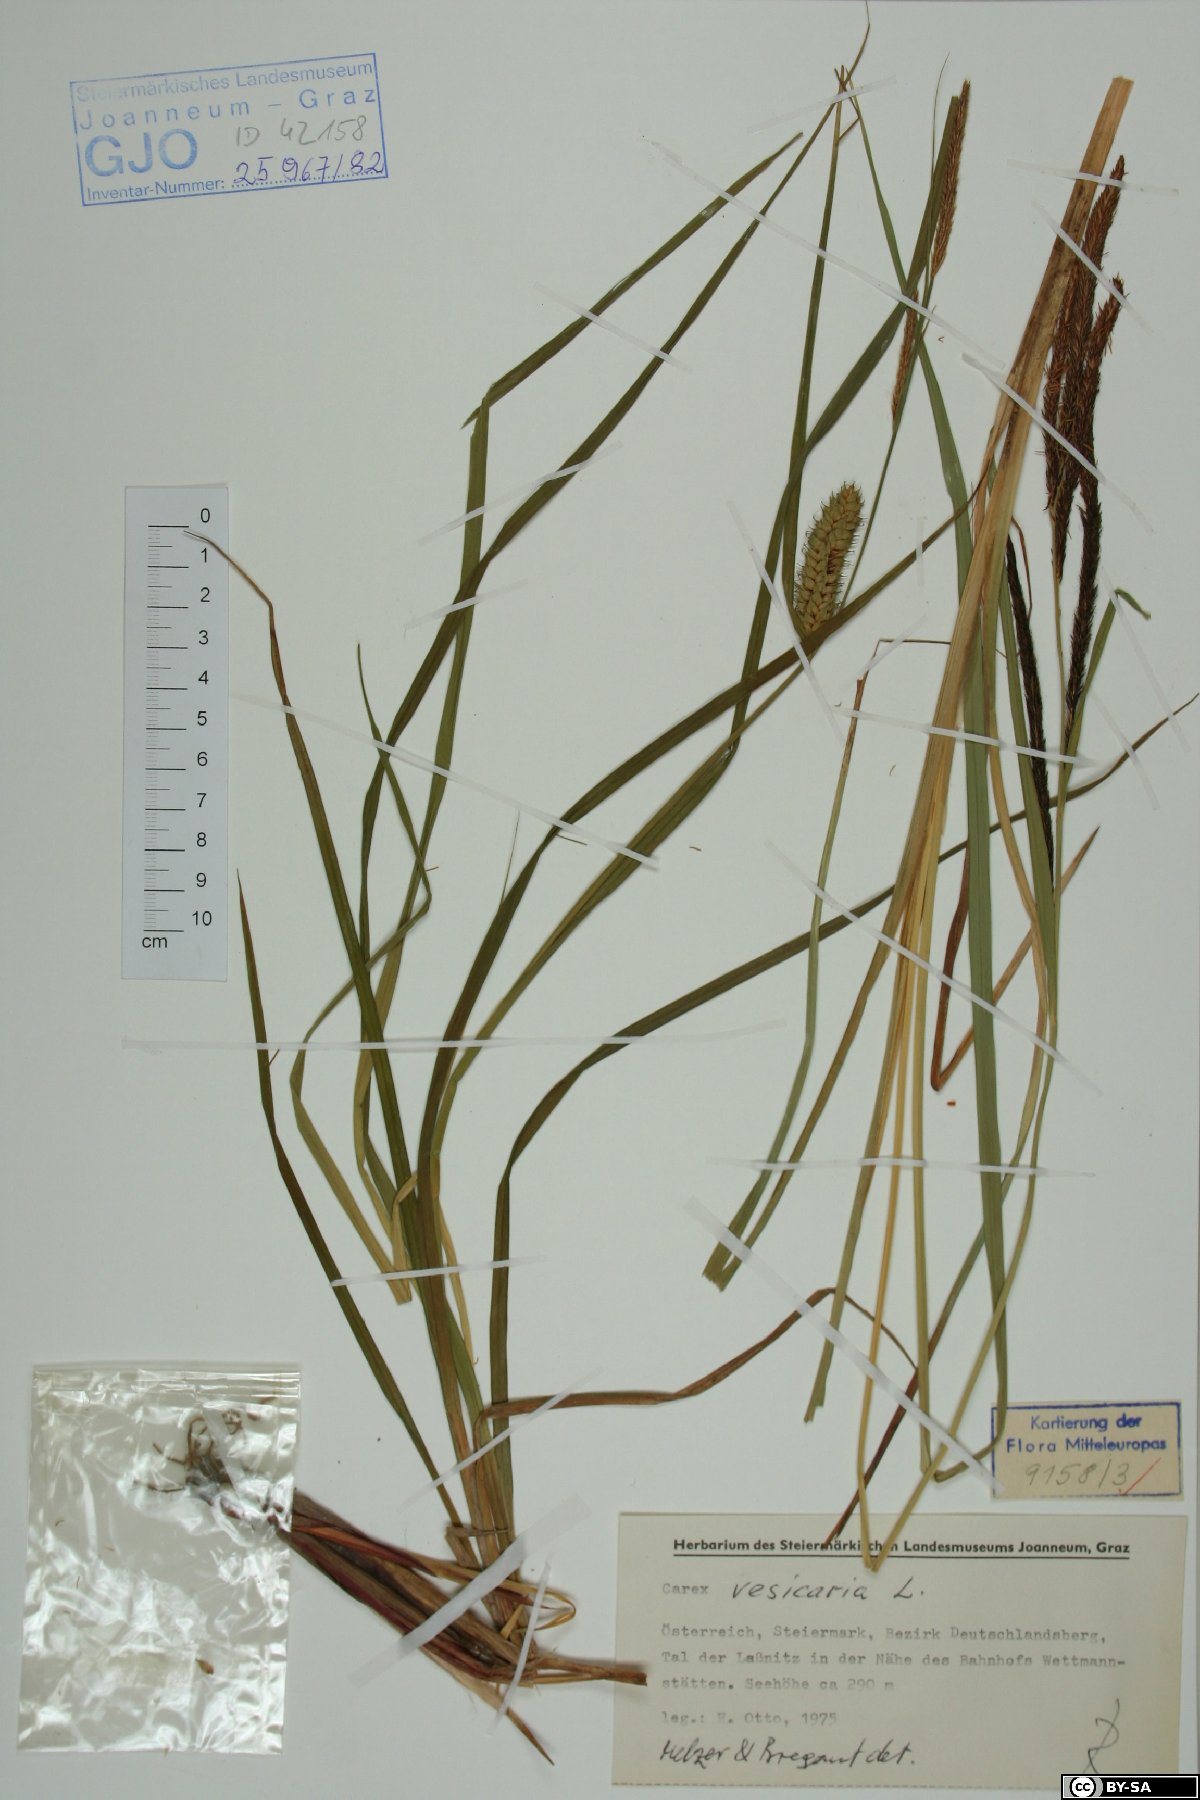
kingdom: Plantae
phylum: Tracheophyta
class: Liliopsida
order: Poales
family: Cyperaceae
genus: Carex
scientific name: Carex vesicaria
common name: Bladder-sedge
